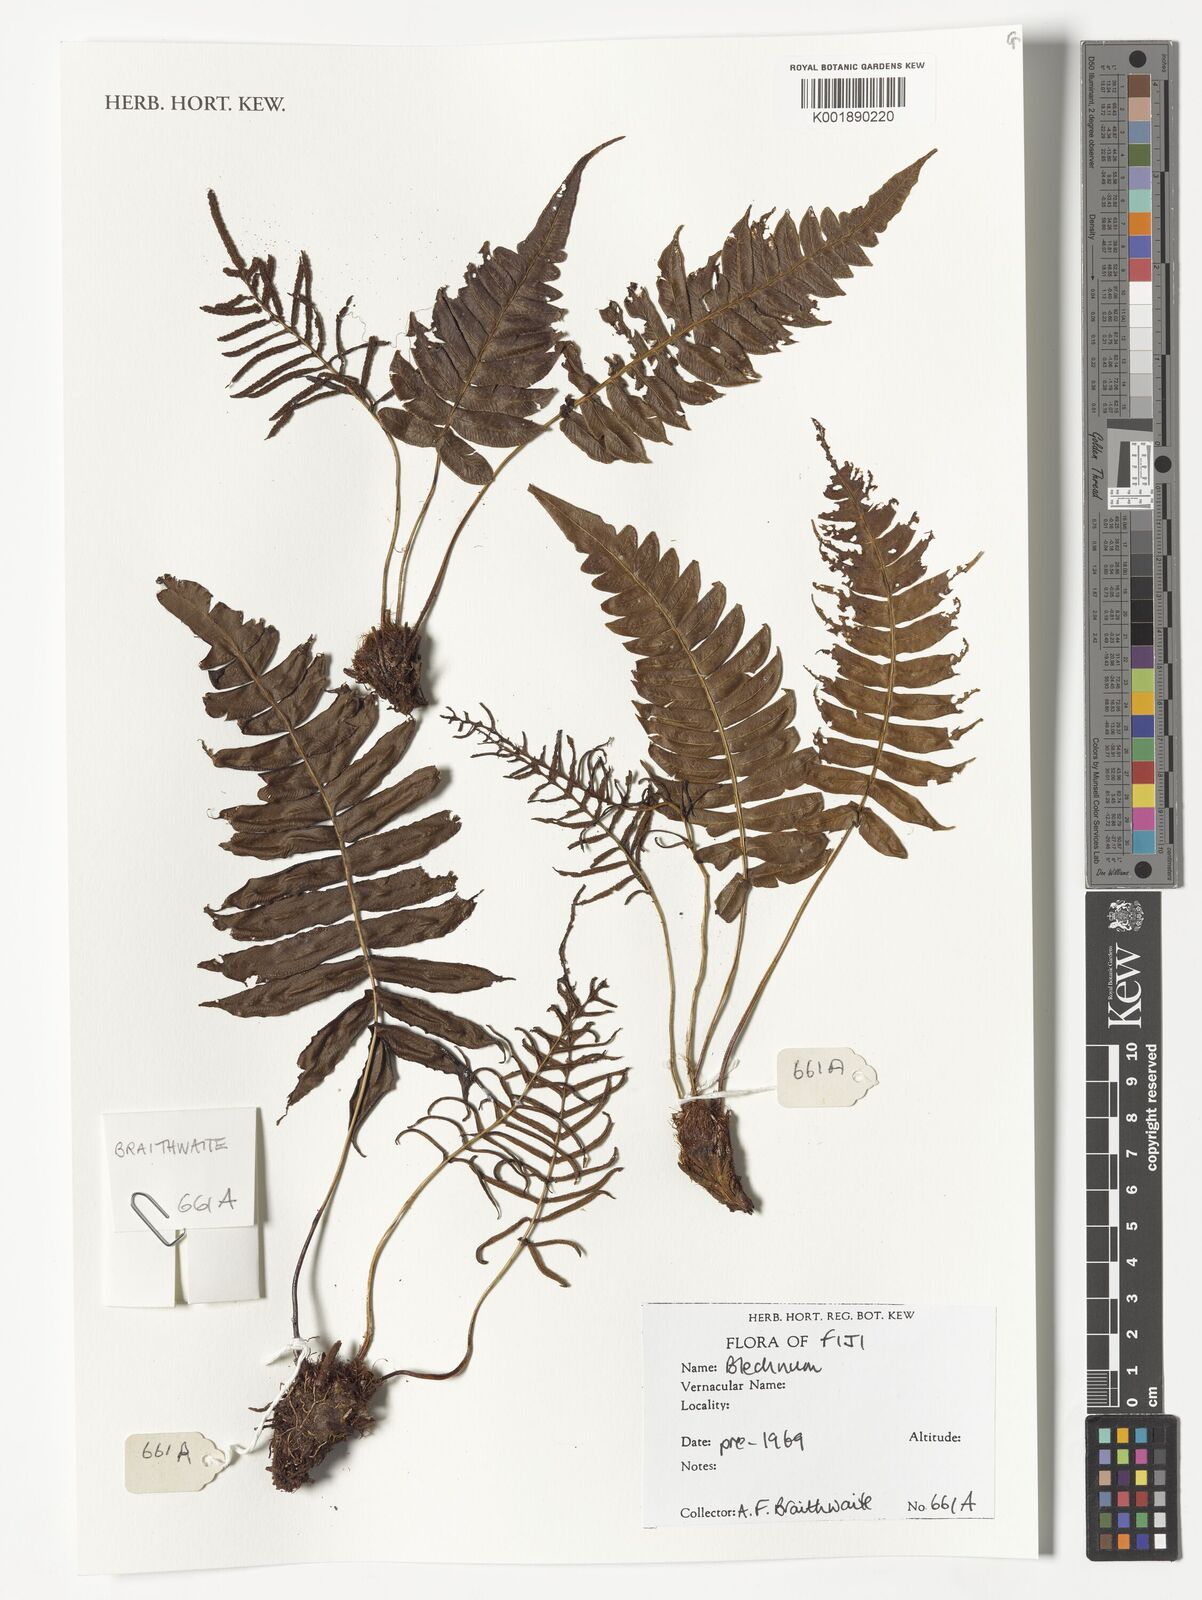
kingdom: Plantae
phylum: Tracheophyta
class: Polypodiopsida
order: Polypodiales
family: Blechnaceae
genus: Blechnum
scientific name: Blechnum
